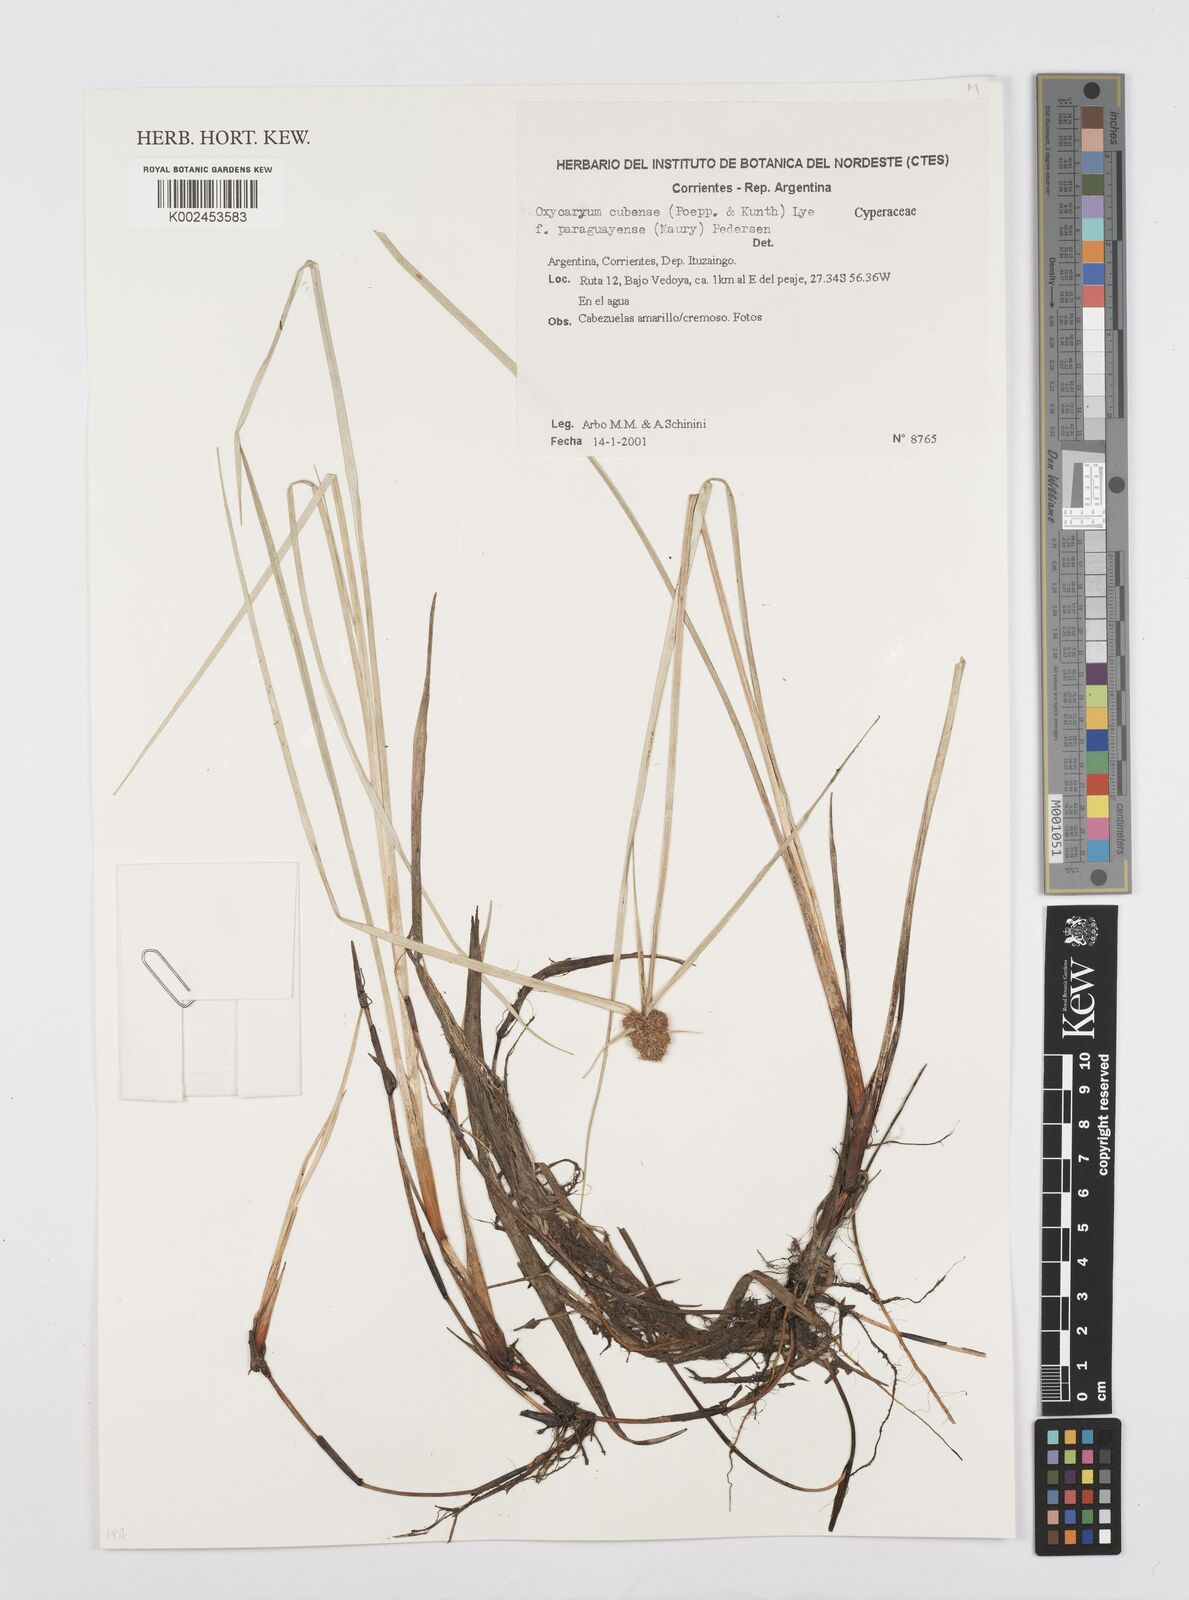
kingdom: Plantae
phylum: Tracheophyta
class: Liliopsida
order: Poales
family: Cyperaceae
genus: Cyperus
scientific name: Cyperus elegans
